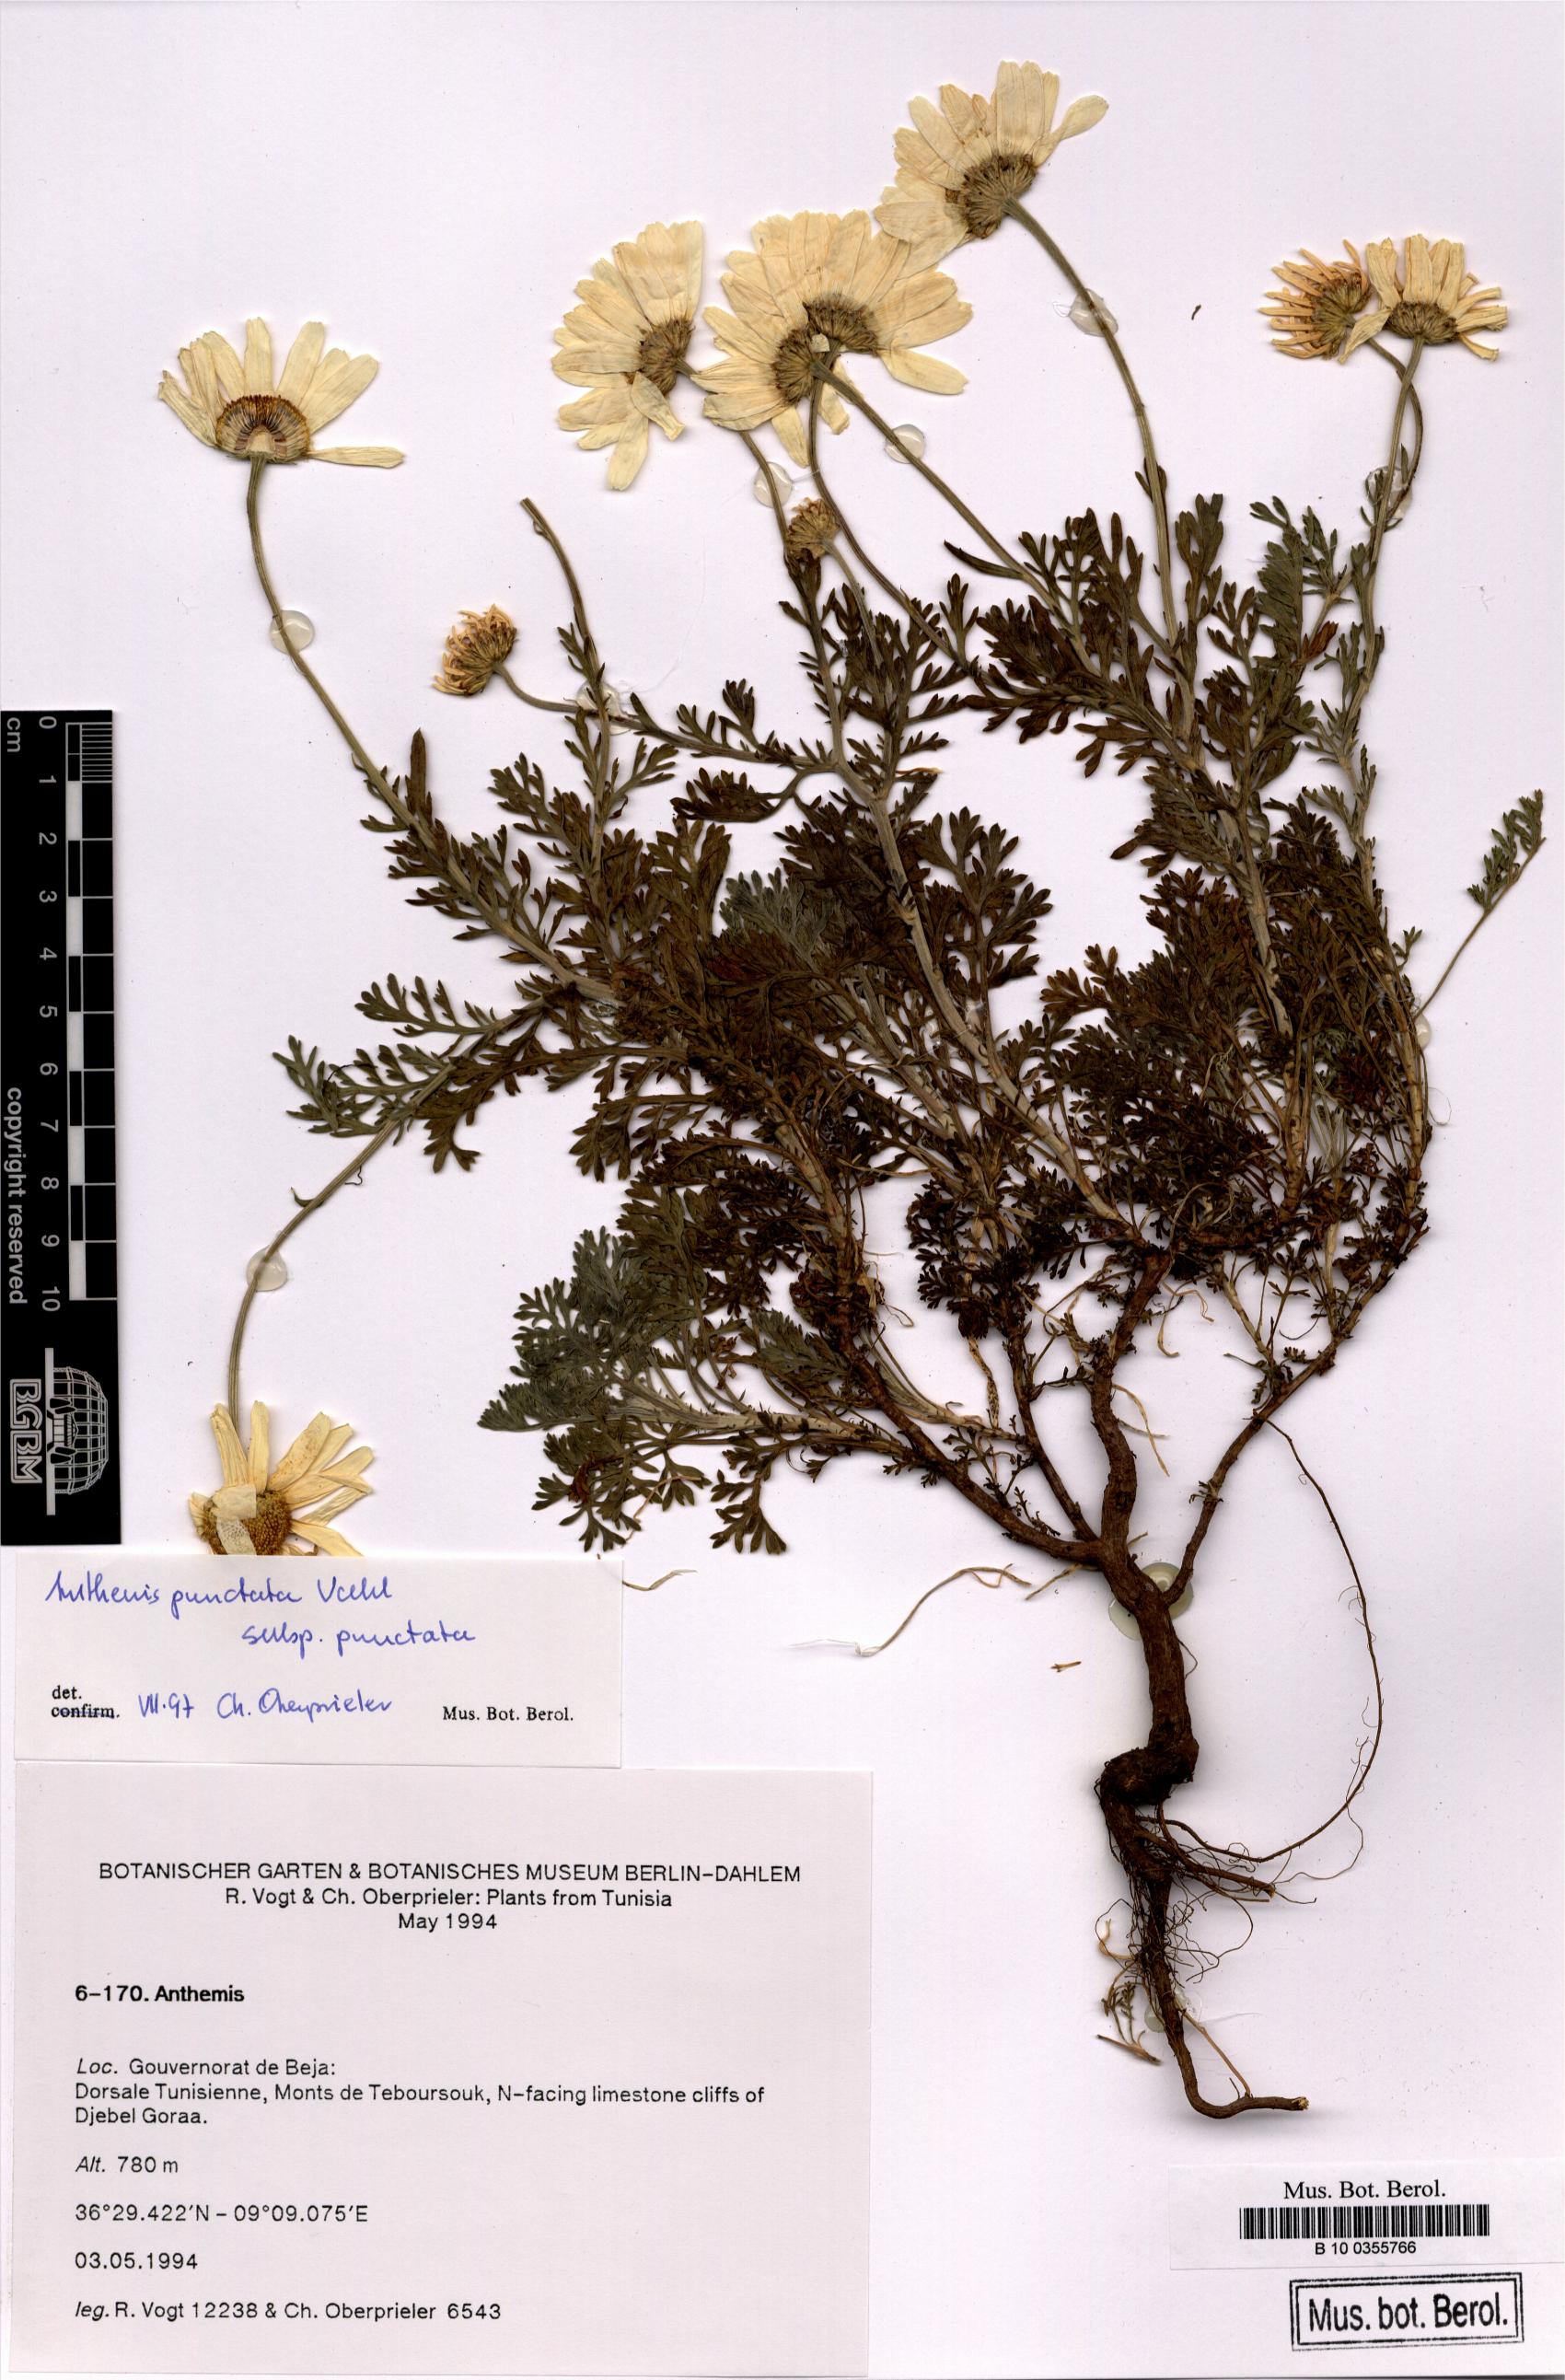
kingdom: Plantae
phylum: Tracheophyta
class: Magnoliopsida
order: Asterales
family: Asteraceae
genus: Anthemis
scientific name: Anthemis punctata
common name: Sicilian chamomile
